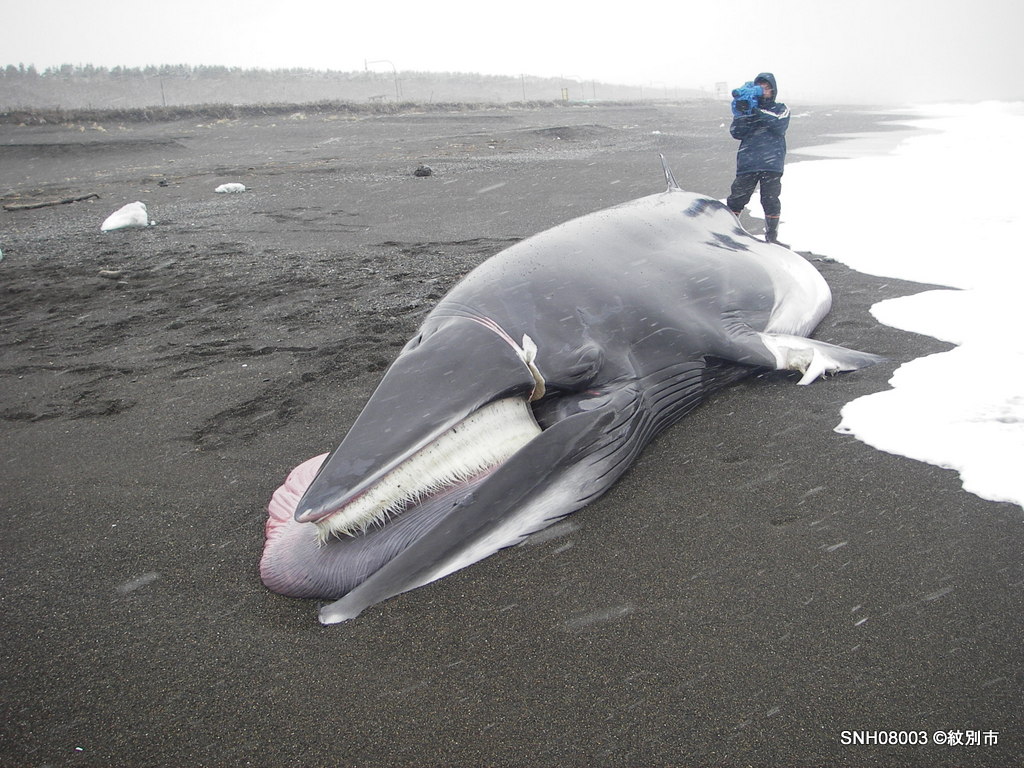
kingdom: Animalia
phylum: Chordata
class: Mammalia
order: Cetacea
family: Balaenopteridae
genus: Balaenoptera
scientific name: Balaenoptera acutorostrata
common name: Minke whale
